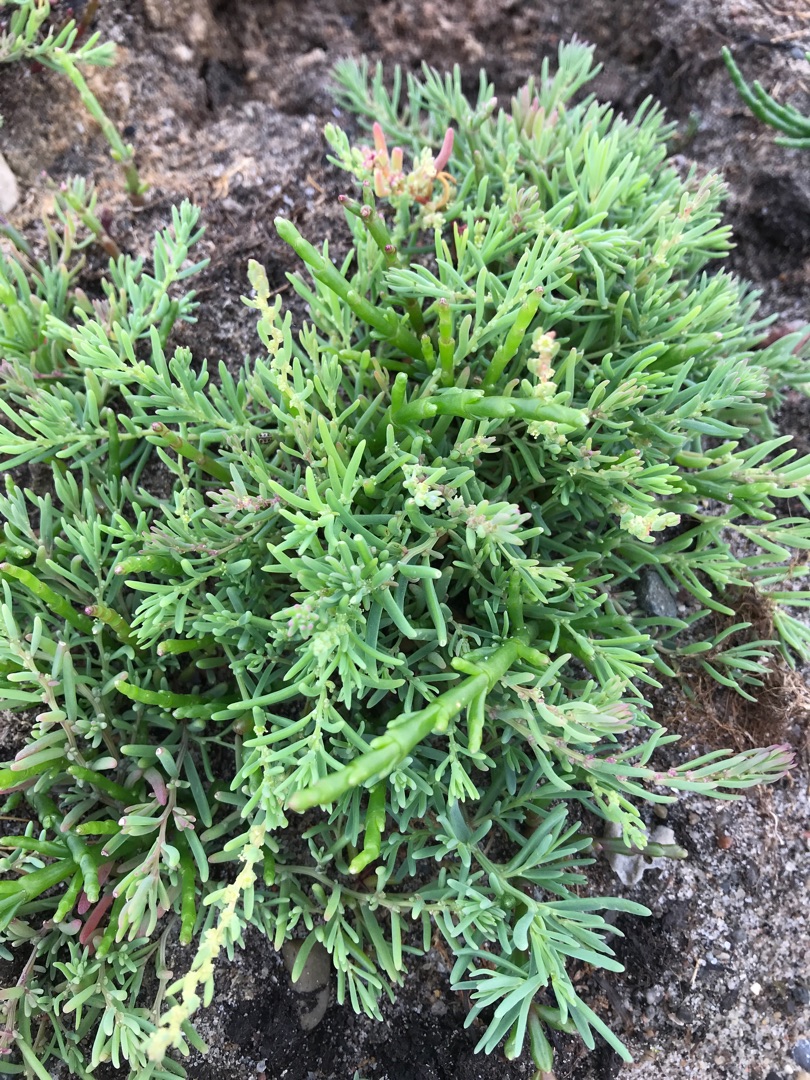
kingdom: Plantae
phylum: Tracheophyta
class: Magnoliopsida
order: Caryophyllales
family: Amaranthaceae
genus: Suaeda
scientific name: Suaeda maritima
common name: Strandgåsefod
